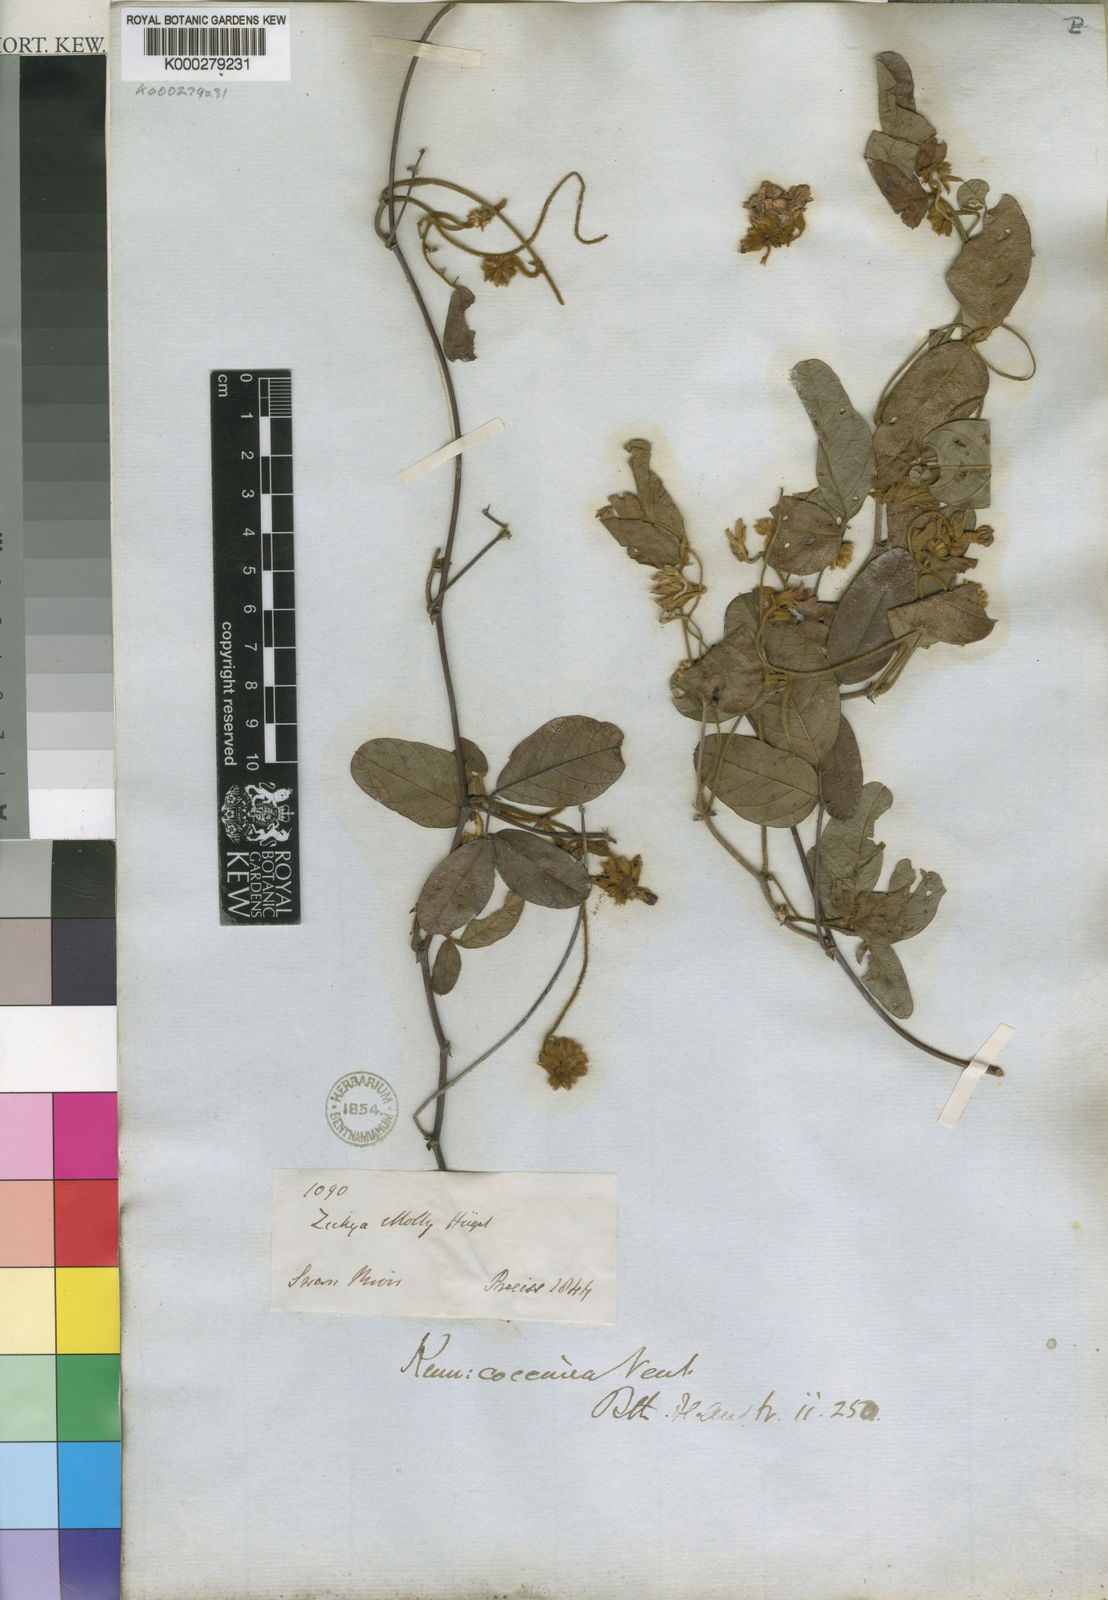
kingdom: Plantae
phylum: Tracheophyta
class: Magnoliopsida
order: Fabales
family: Fabaceae
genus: Kennedia
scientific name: Kennedia coccinea
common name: Coralvine
